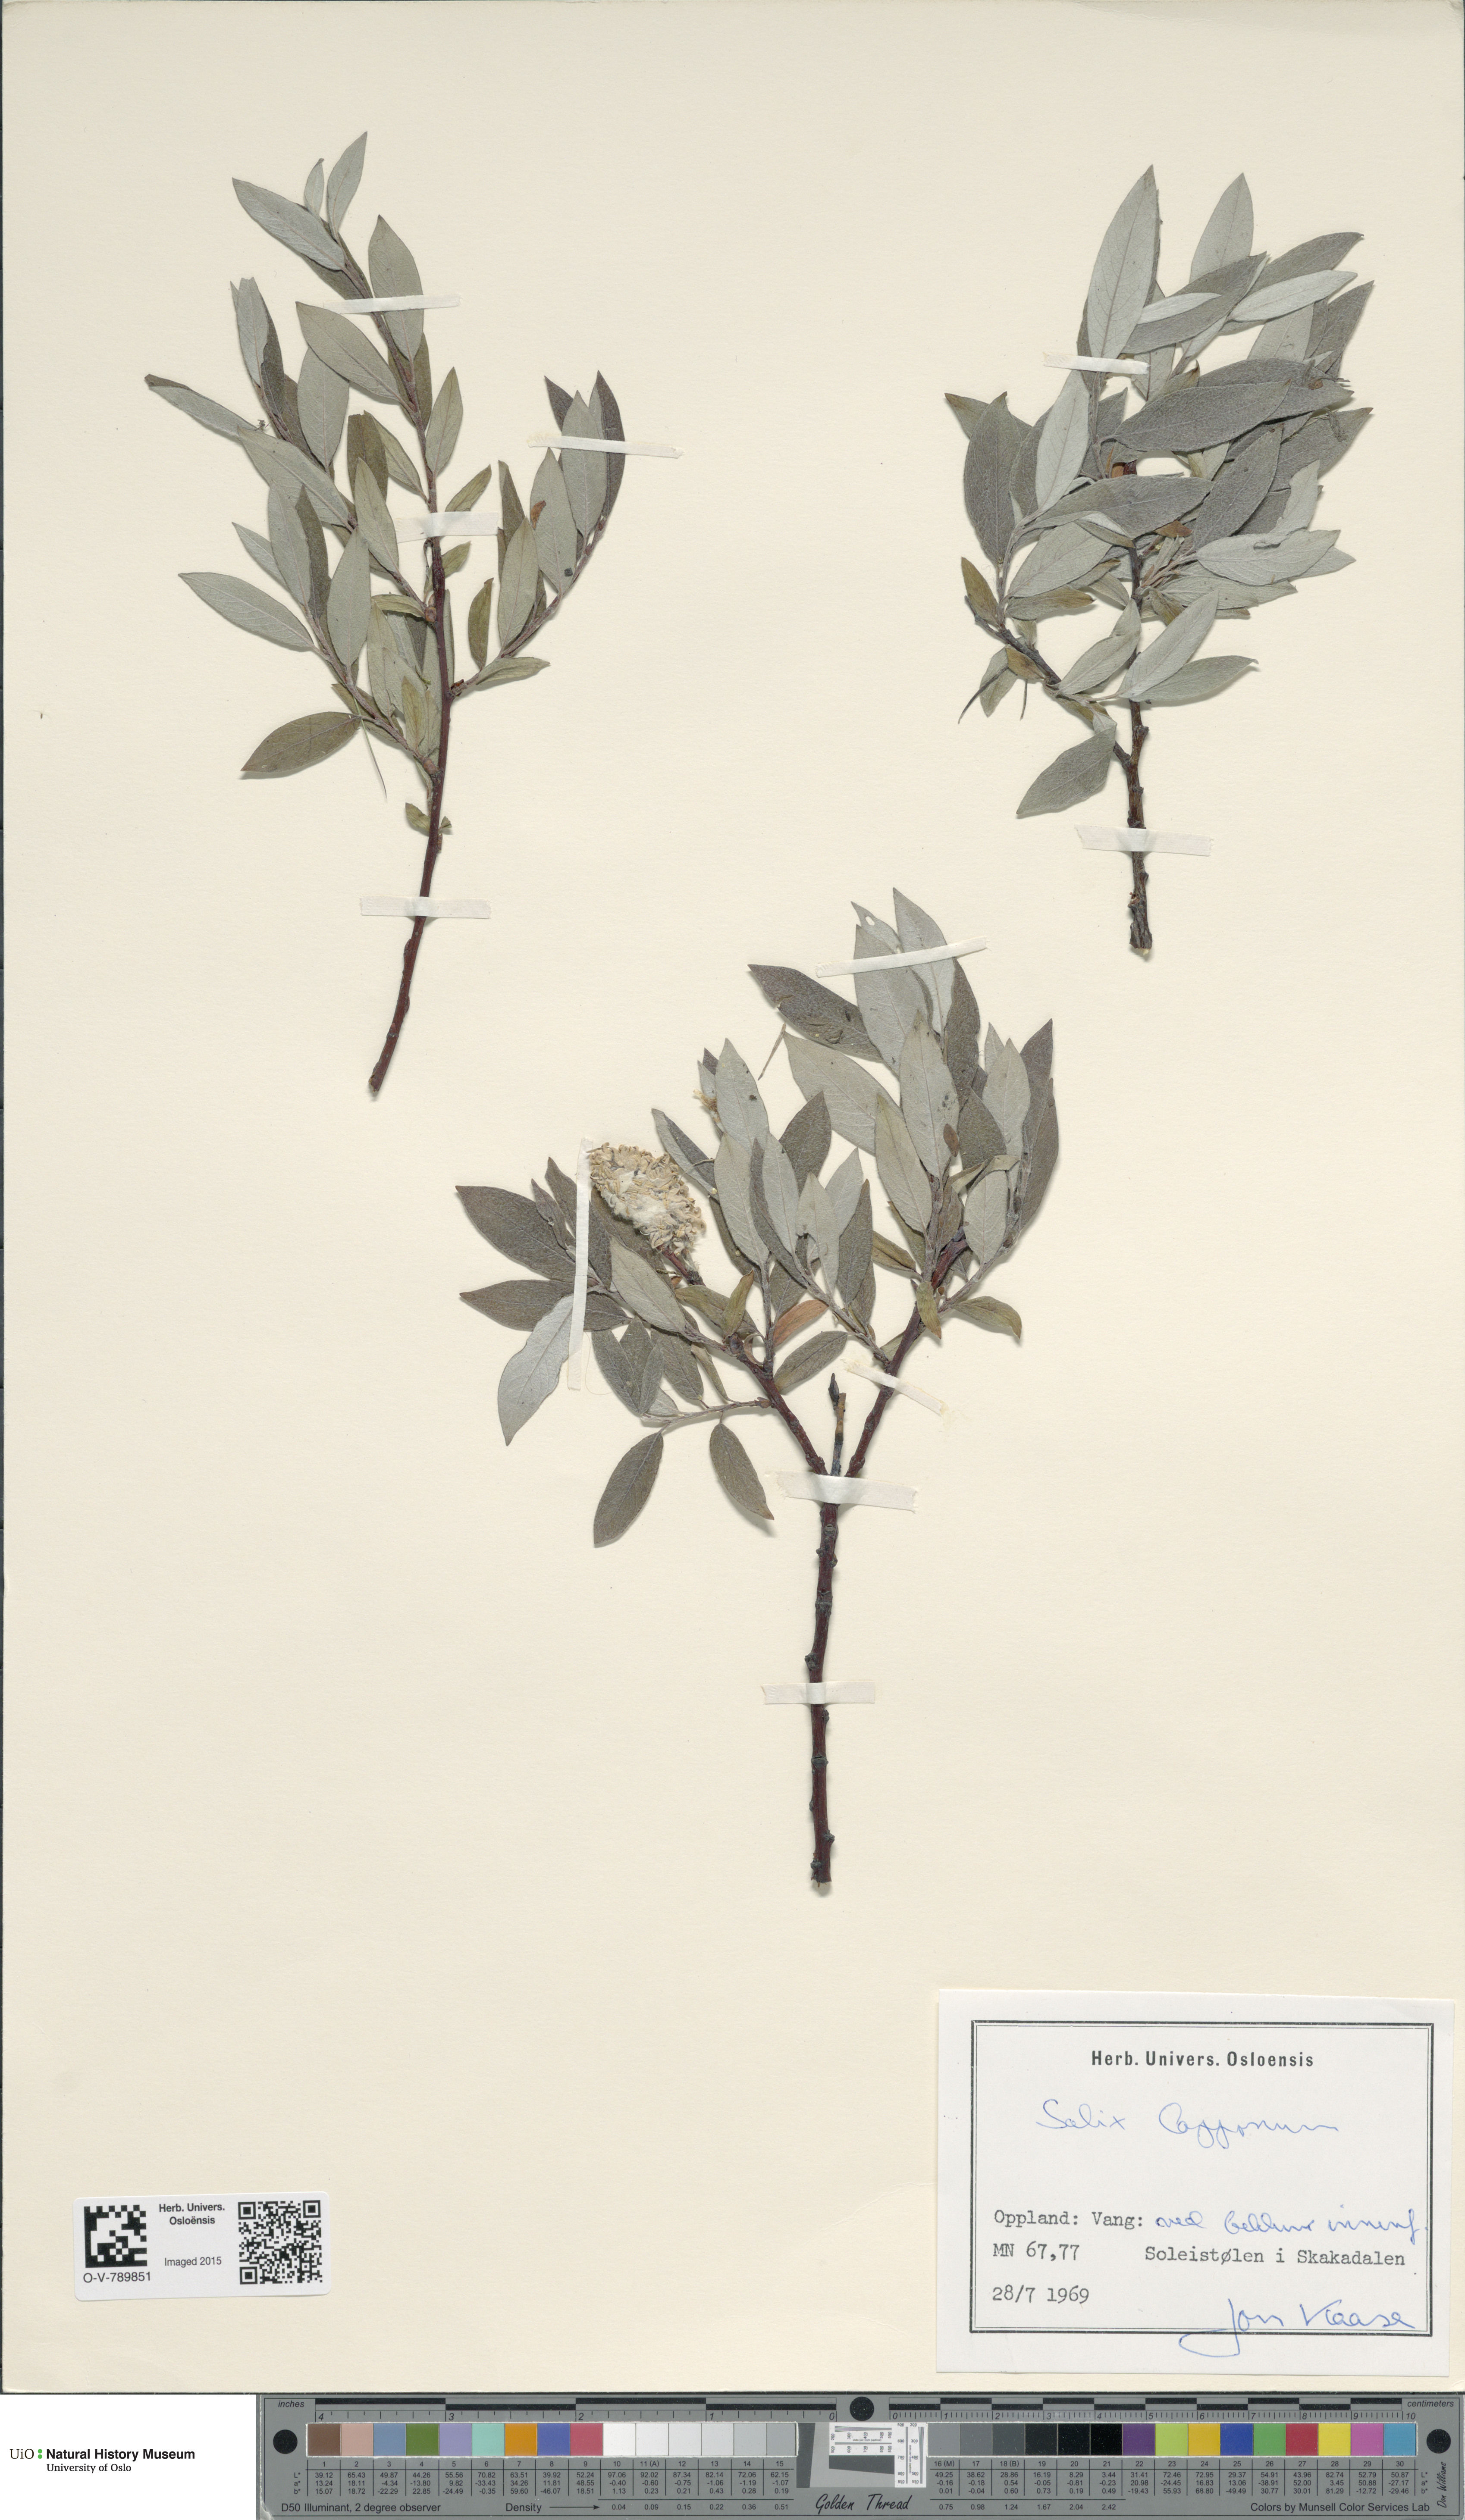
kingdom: Plantae
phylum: Tracheophyta
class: Magnoliopsida
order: Malpighiales
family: Salicaceae
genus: Salix
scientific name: Salix lapponum
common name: Downy willow
